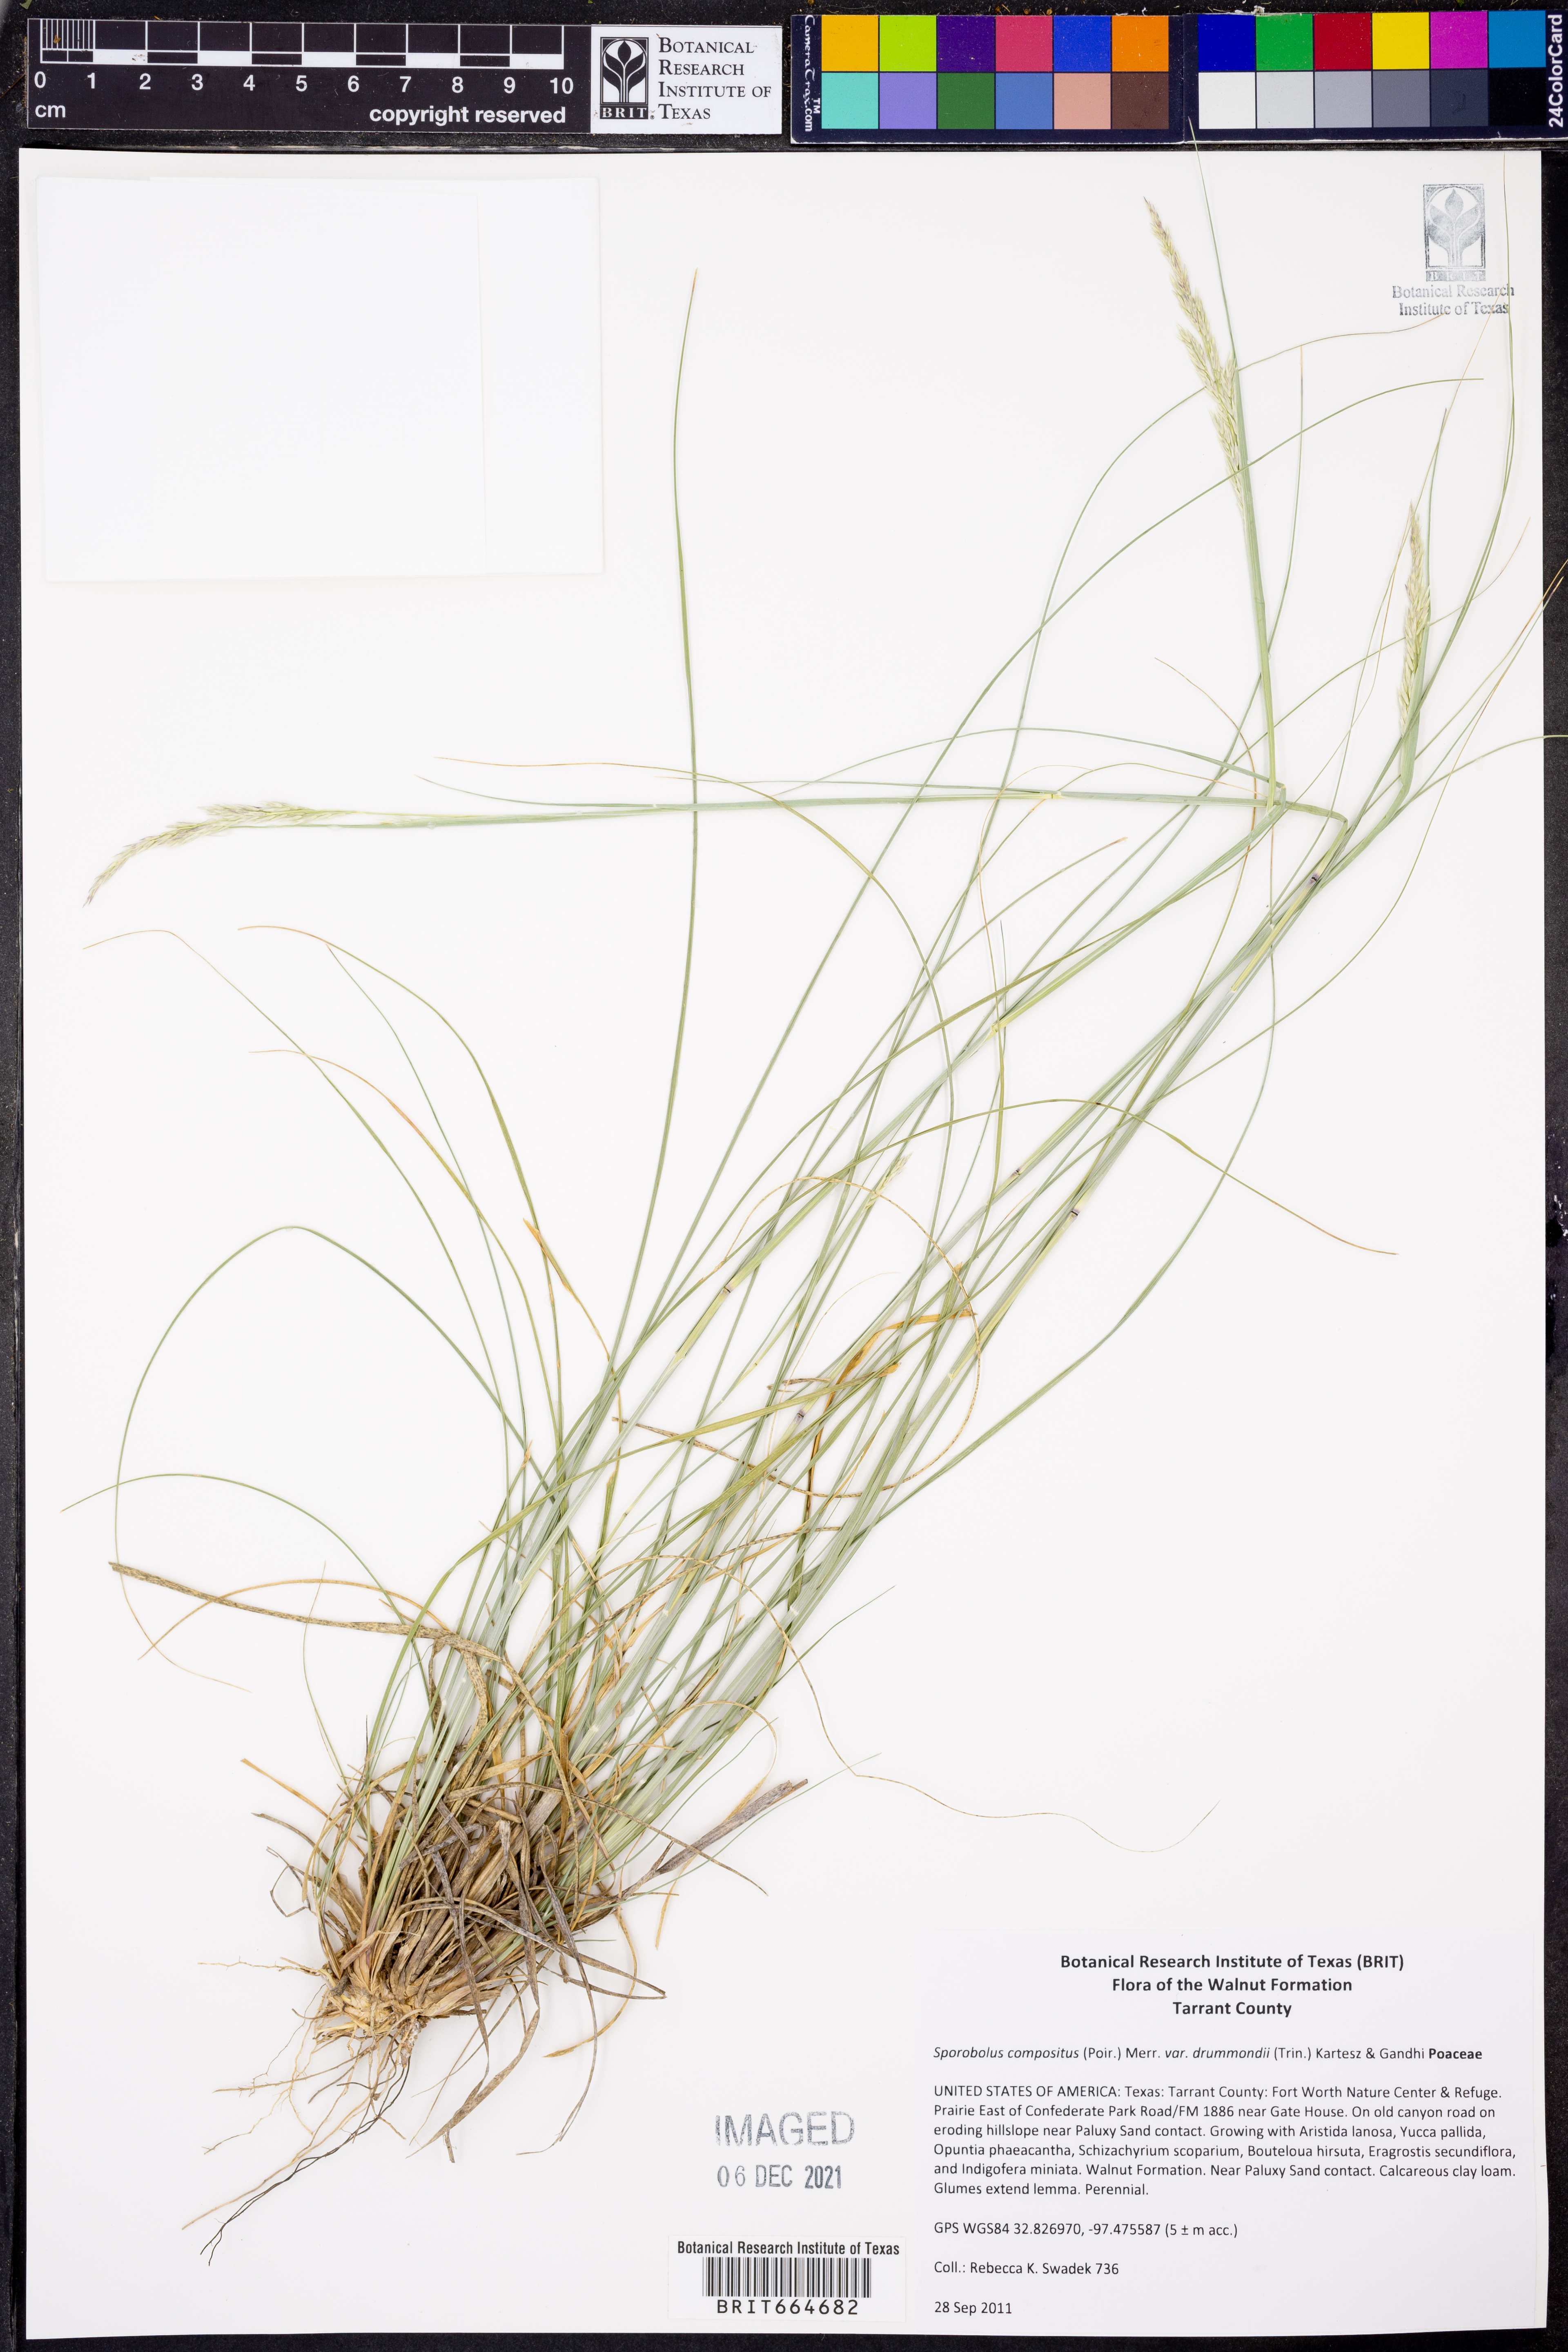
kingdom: Plantae
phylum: Tracheophyta
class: Liliopsida
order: Poales
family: Poaceae
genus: Sporobolus
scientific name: Sporobolus compositus
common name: Rough dropseed
